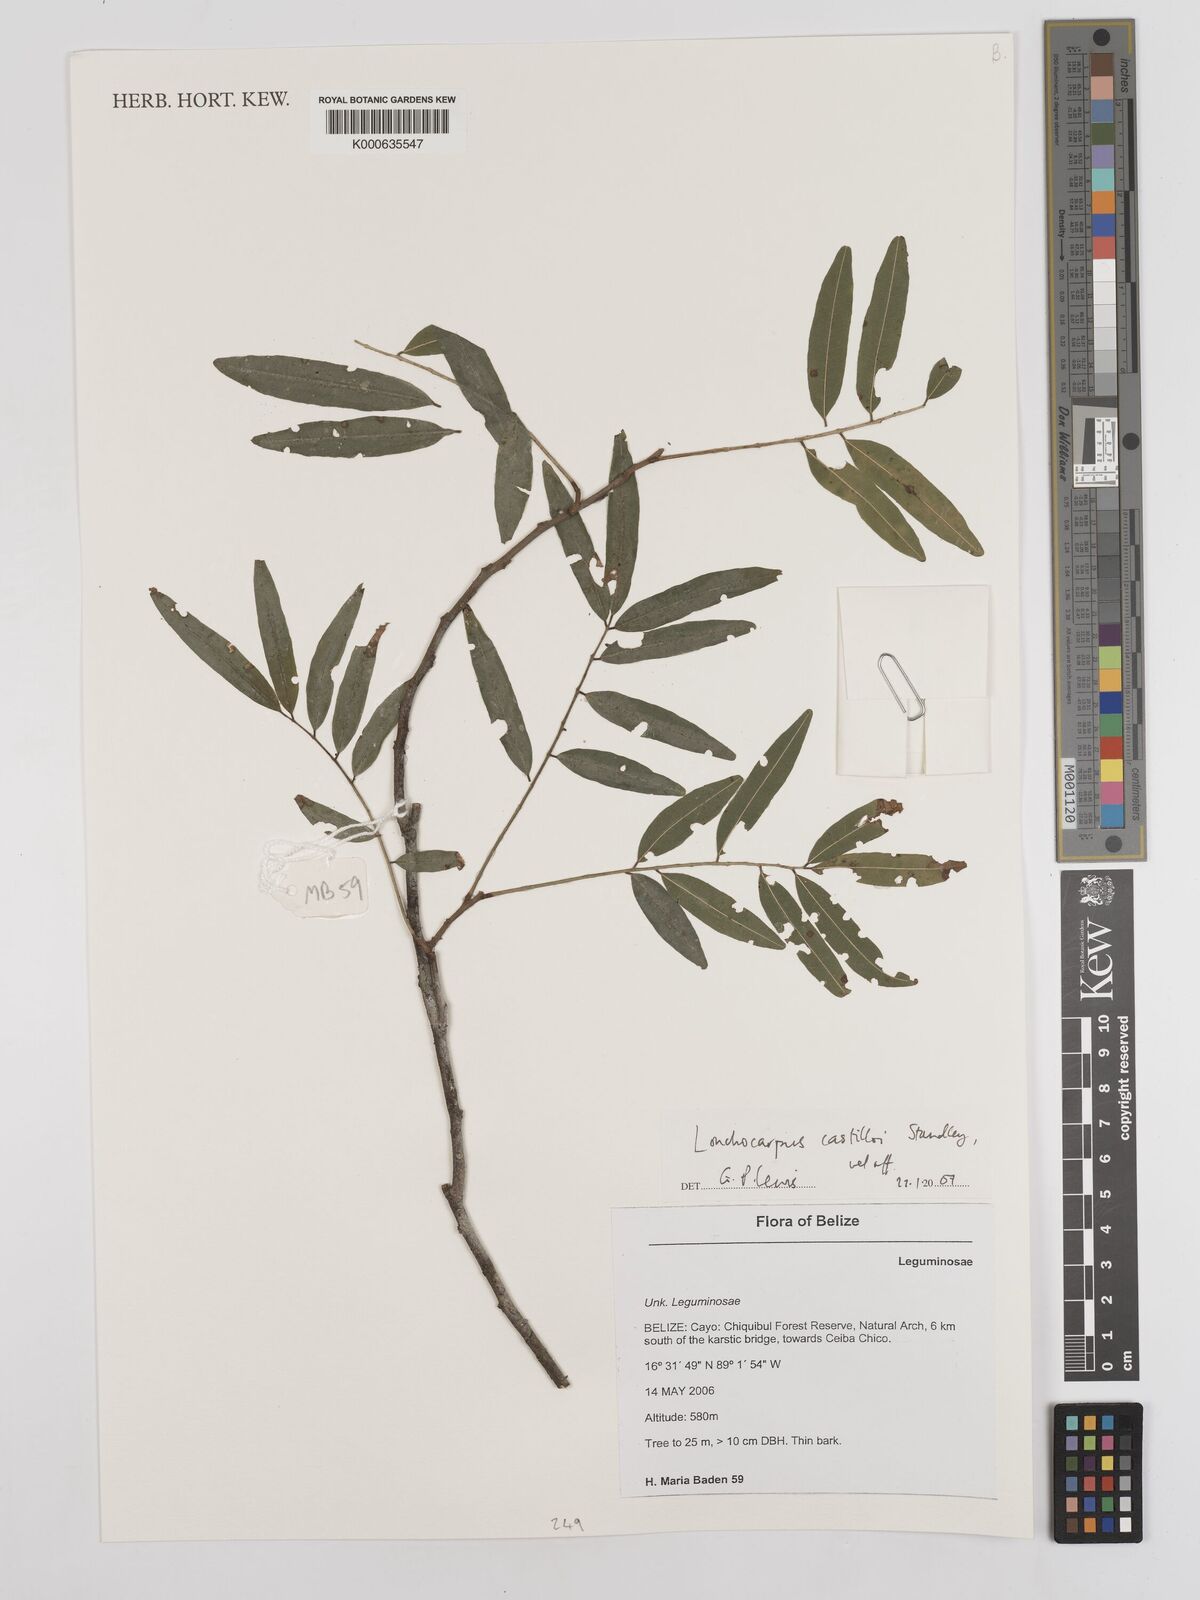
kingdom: Plantae
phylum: Tracheophyta
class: Magnoliopsida
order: Fabales
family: Fabaceae
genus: Lonchocarpus
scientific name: Lonchocarpus castilloi
